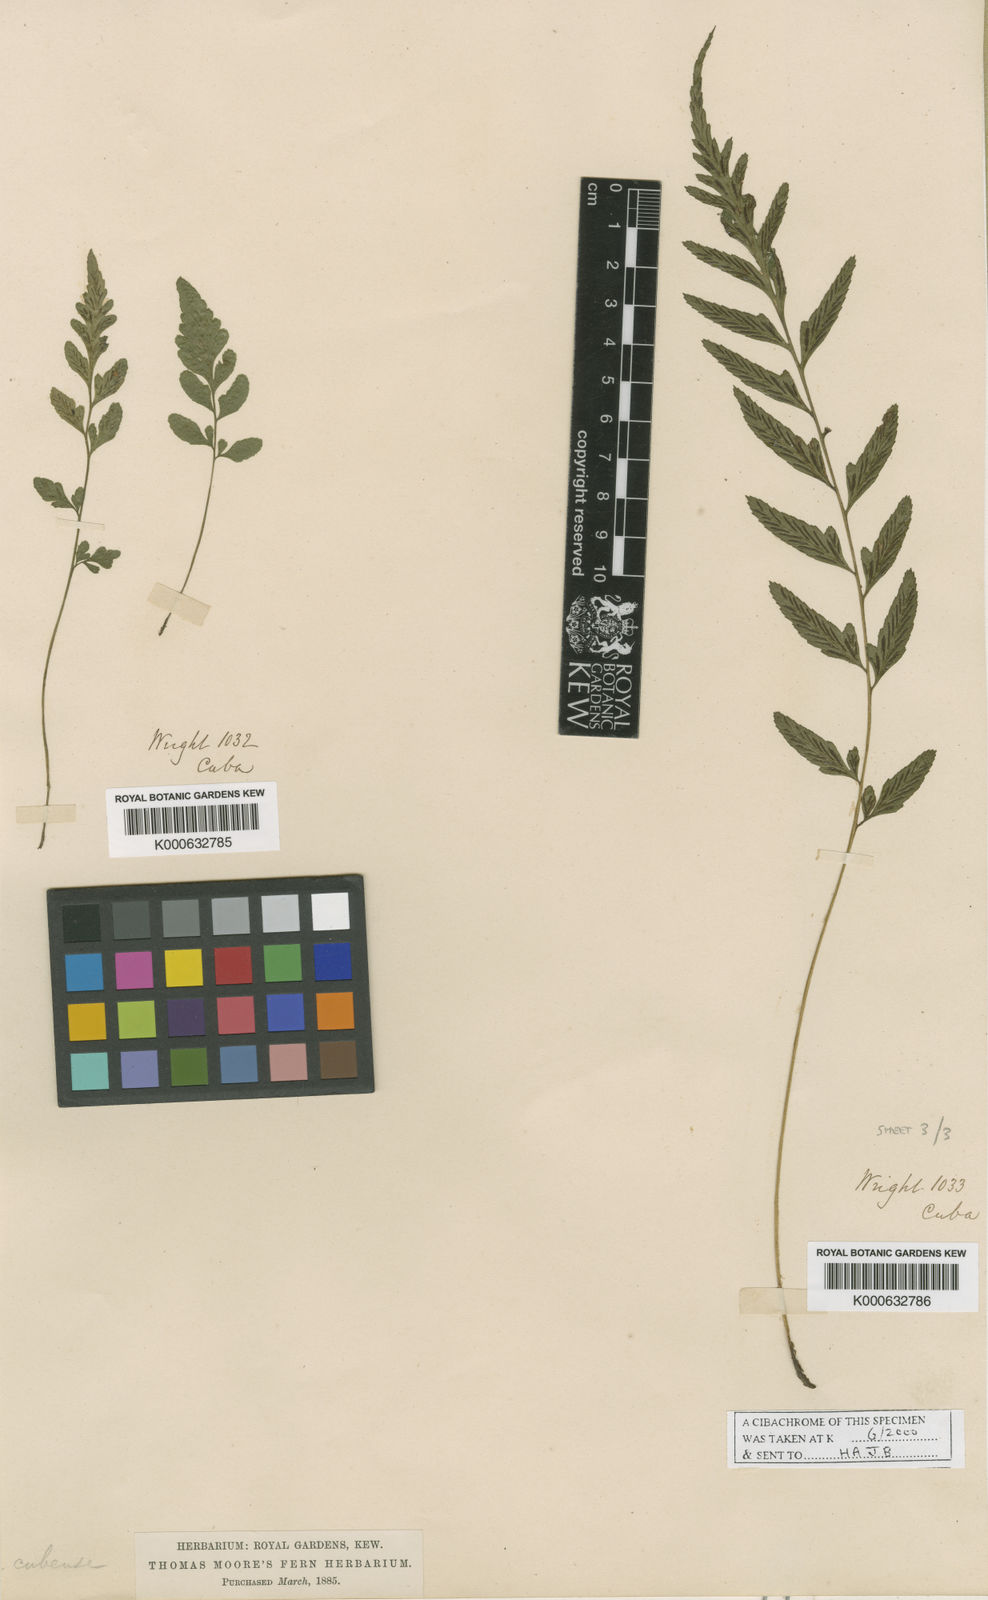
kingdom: Plantae
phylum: Tracheophyta
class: Polypodiopsida
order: Polypodiales
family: Athyriaceae
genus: Diplazium
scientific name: Diplazium unilobum
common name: Singlelobe twinsorus fern
